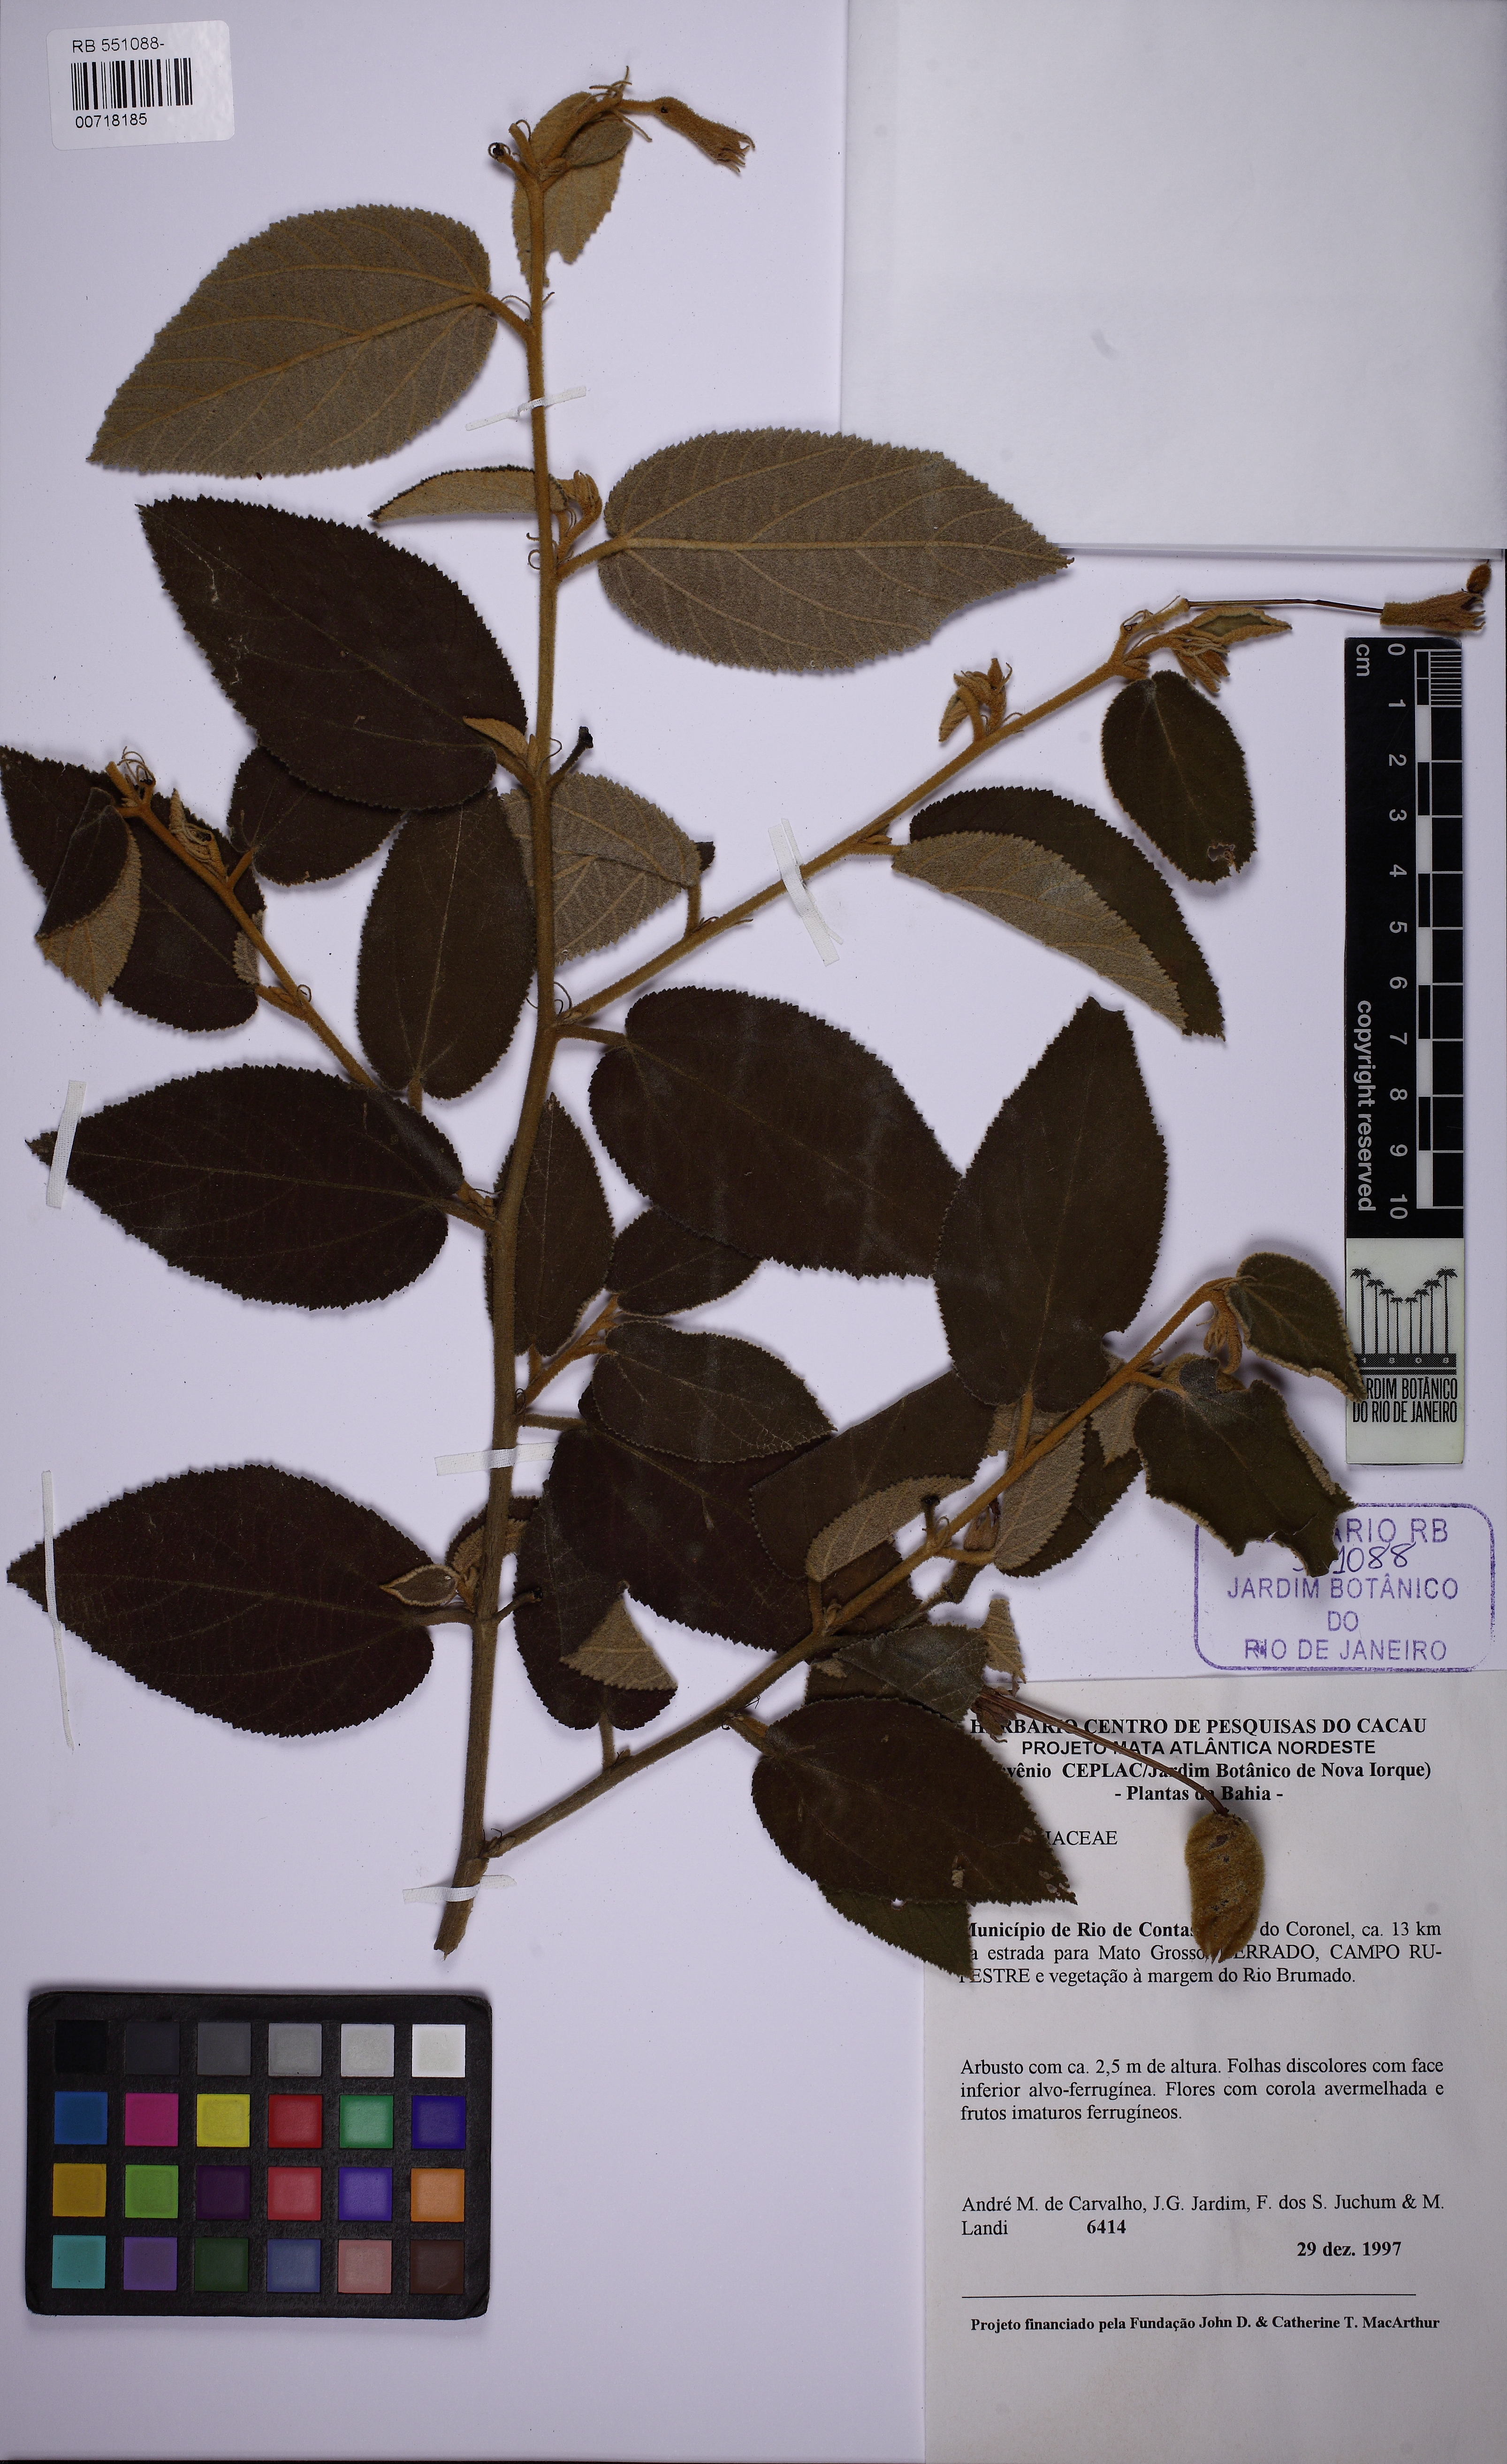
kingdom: Plantae
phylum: Tracheophyta
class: Magnoliopsida
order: Malvales
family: Malvaceae
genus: Helicteres
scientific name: Helicteres
